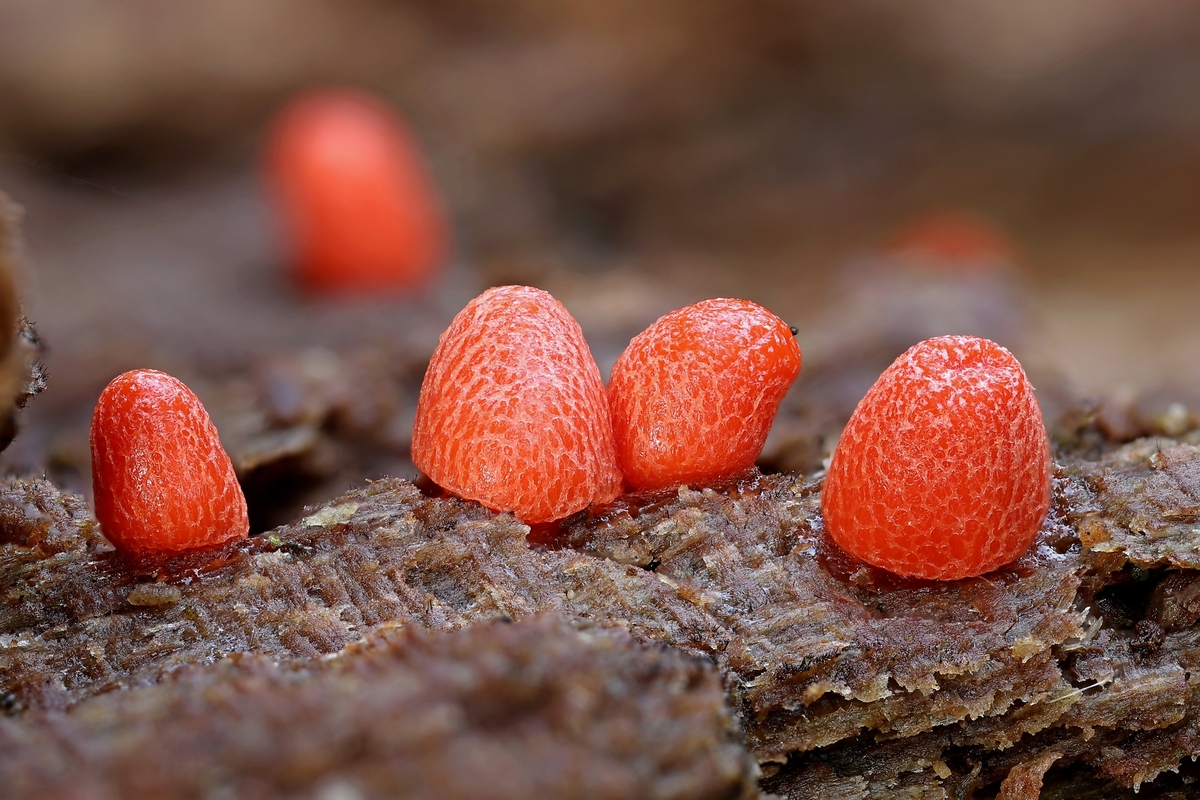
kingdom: Protozoa
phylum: Mycetozoa
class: Myxomycetes
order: Cribrariales
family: Tubiferaceae
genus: Lycogala
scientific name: Lycogala conicum
